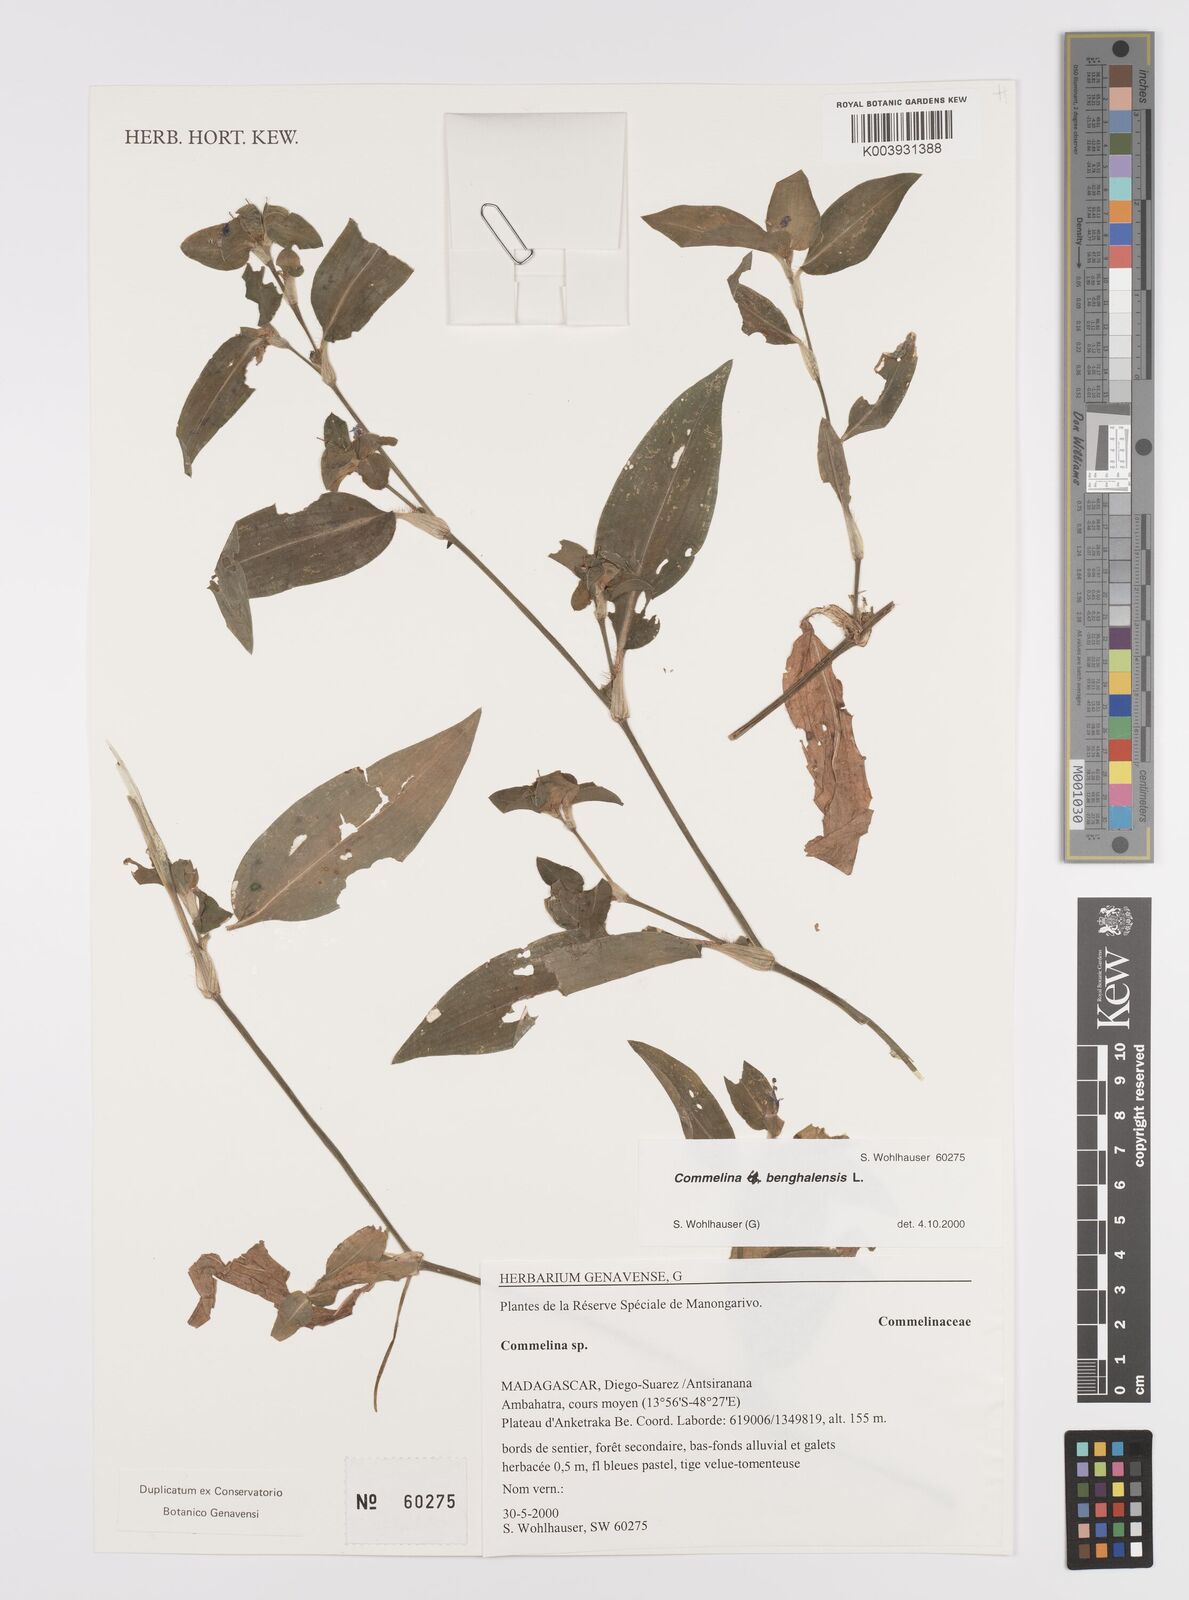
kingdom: Plantae
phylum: Tracheophyta
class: Liliopsida
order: Commelinales
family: Commelinaceae
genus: Commelina
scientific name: Commelina benghalensis
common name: Jio
